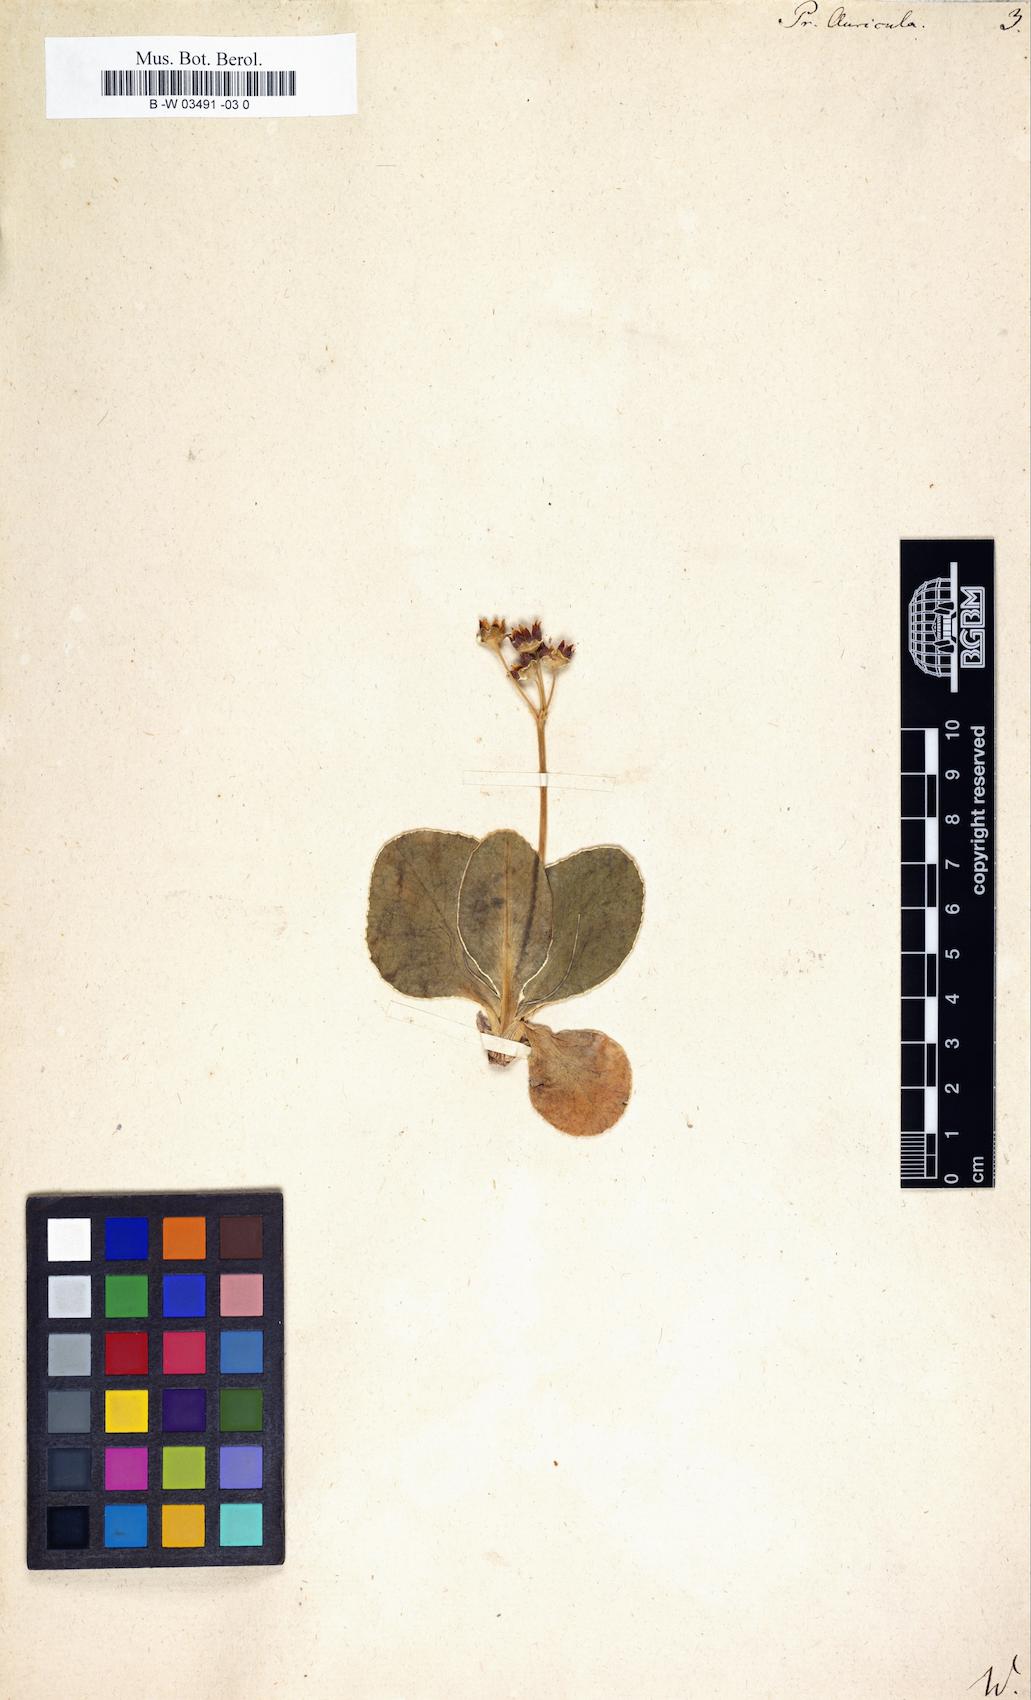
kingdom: Plantae
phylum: Tracheophyta
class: Magnoliopsida
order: Ericales
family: Primulaceae
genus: Primula
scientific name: Primula auricula
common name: Auricula
